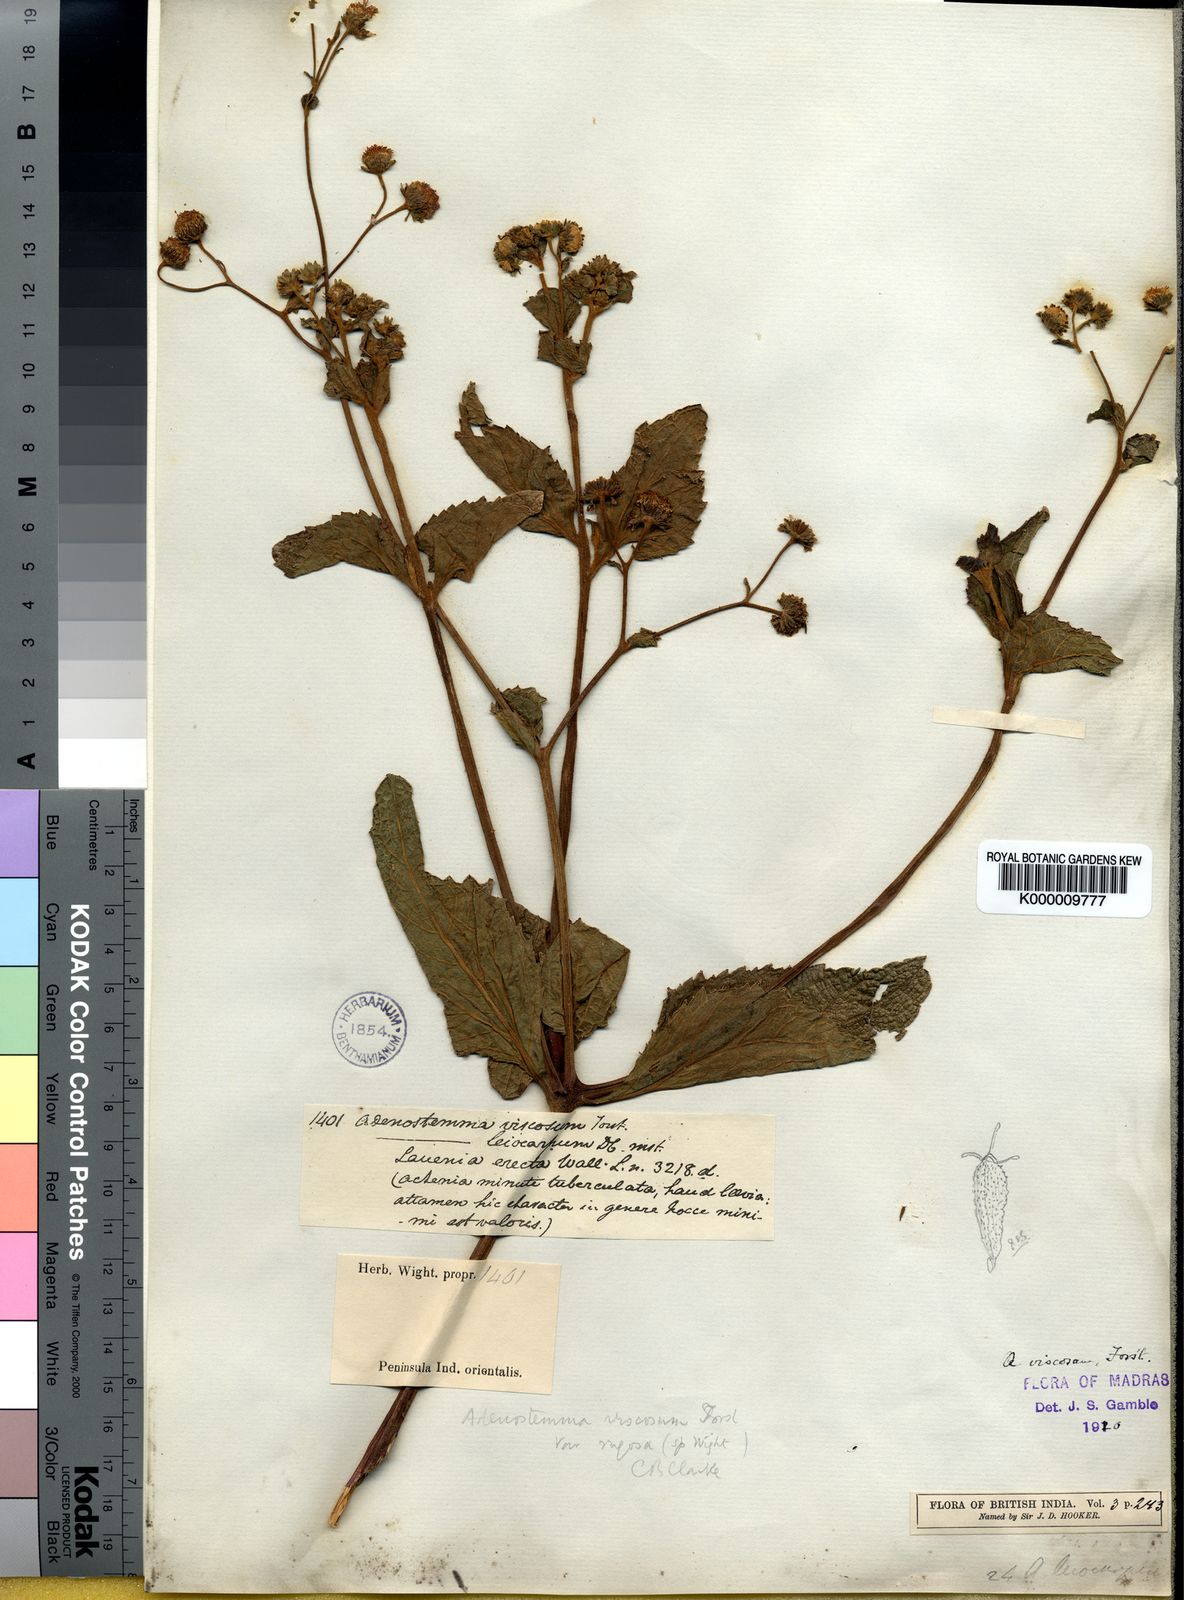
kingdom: Plantae
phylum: Tracheophyta
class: Magnoliopsida
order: Asterales
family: Asteraceae
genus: Adenostemma
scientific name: Adenostemma viscosum
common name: Dungweed
